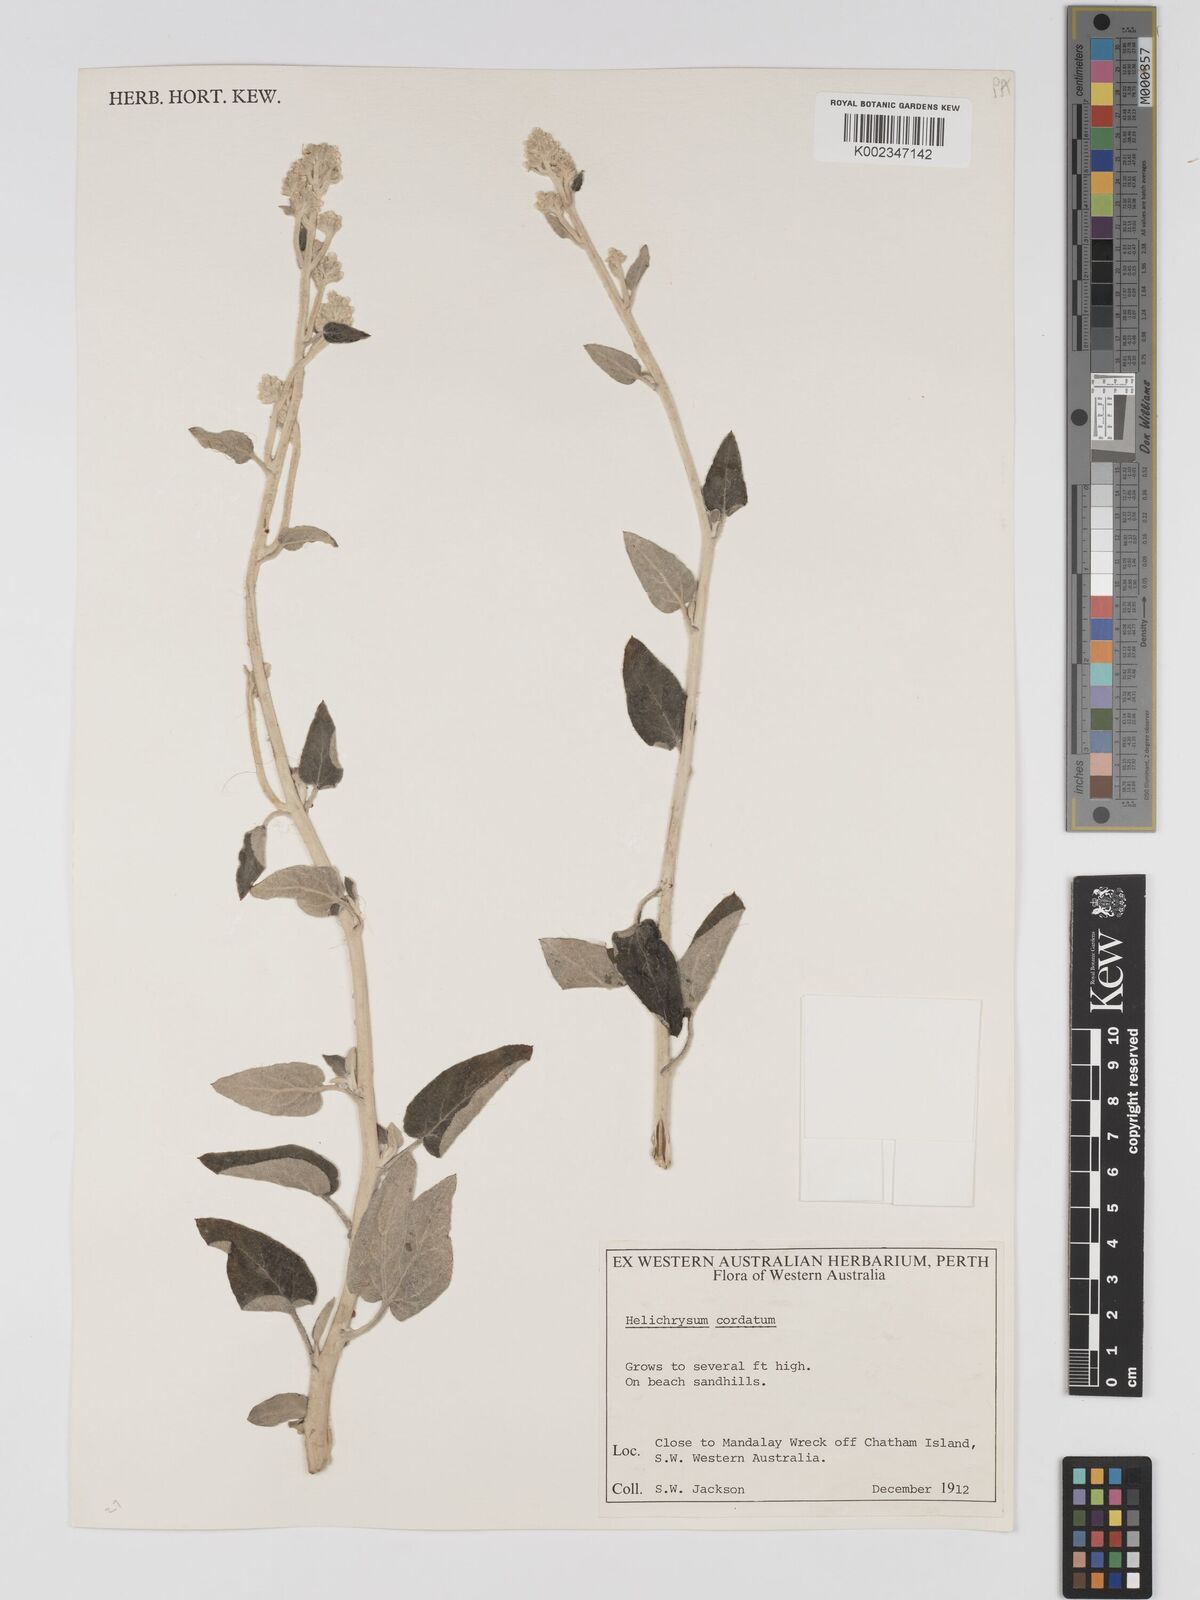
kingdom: Plantae
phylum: Tracheophyta
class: Magnoliopsida
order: Asterales
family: Asteraceae
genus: Ozothamnus
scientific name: Ozothamnus
